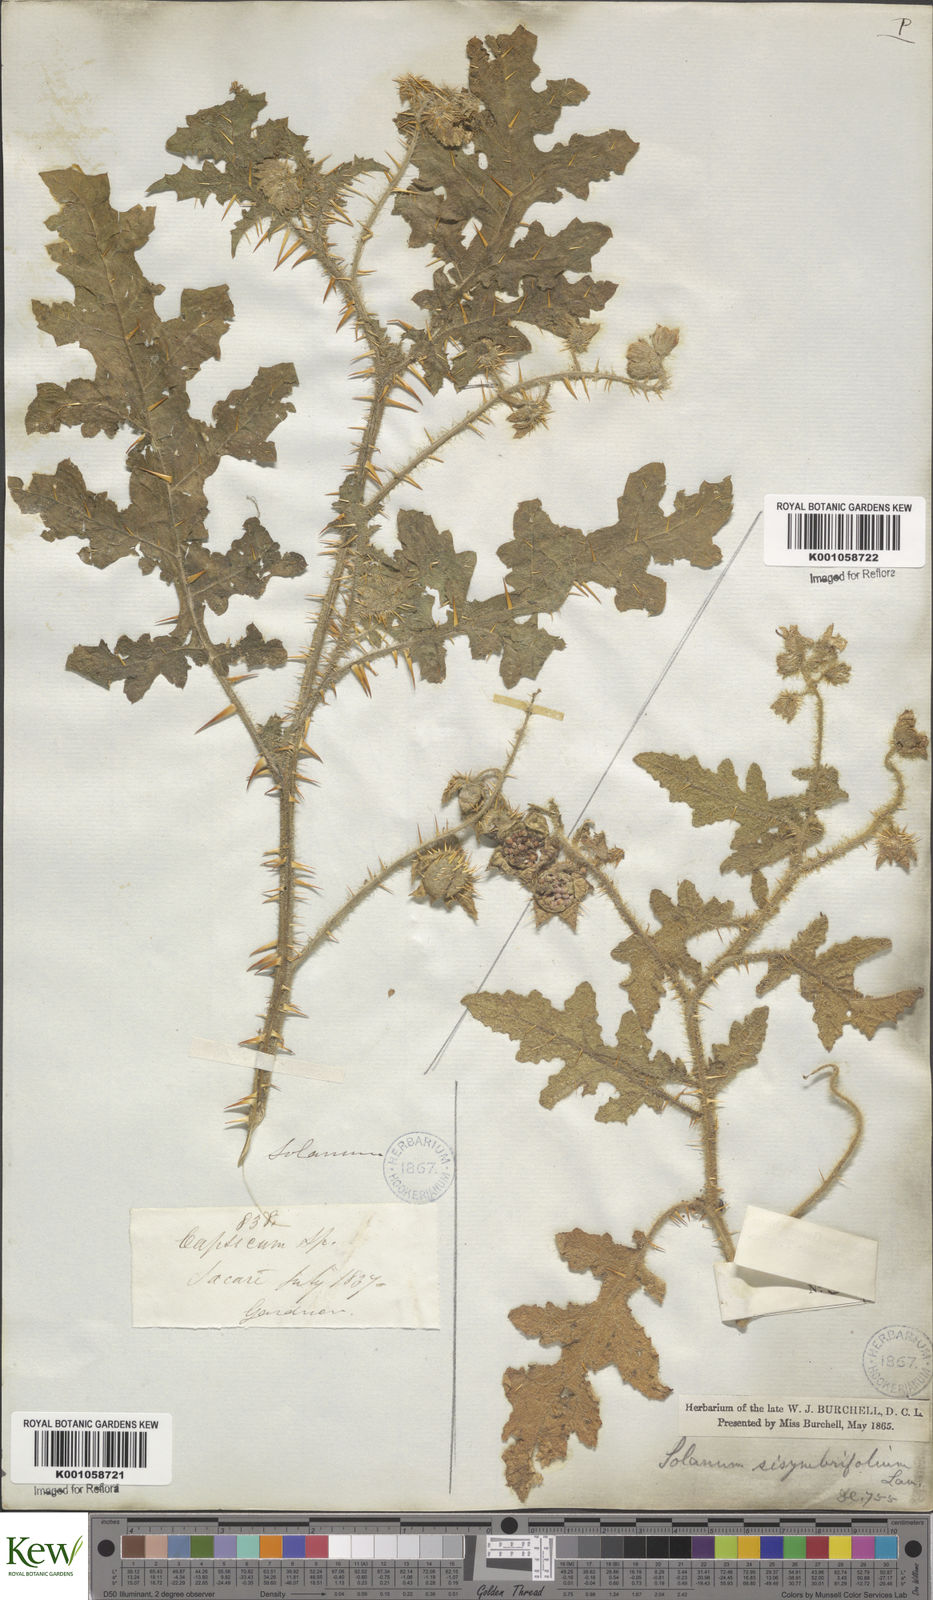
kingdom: Plantae
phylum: Tracheophyta
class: Magnoliopsida
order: Solanales
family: Solanaceae
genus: Solanum
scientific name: Solanum sisymbriifolium
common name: Red buffalo-bur
